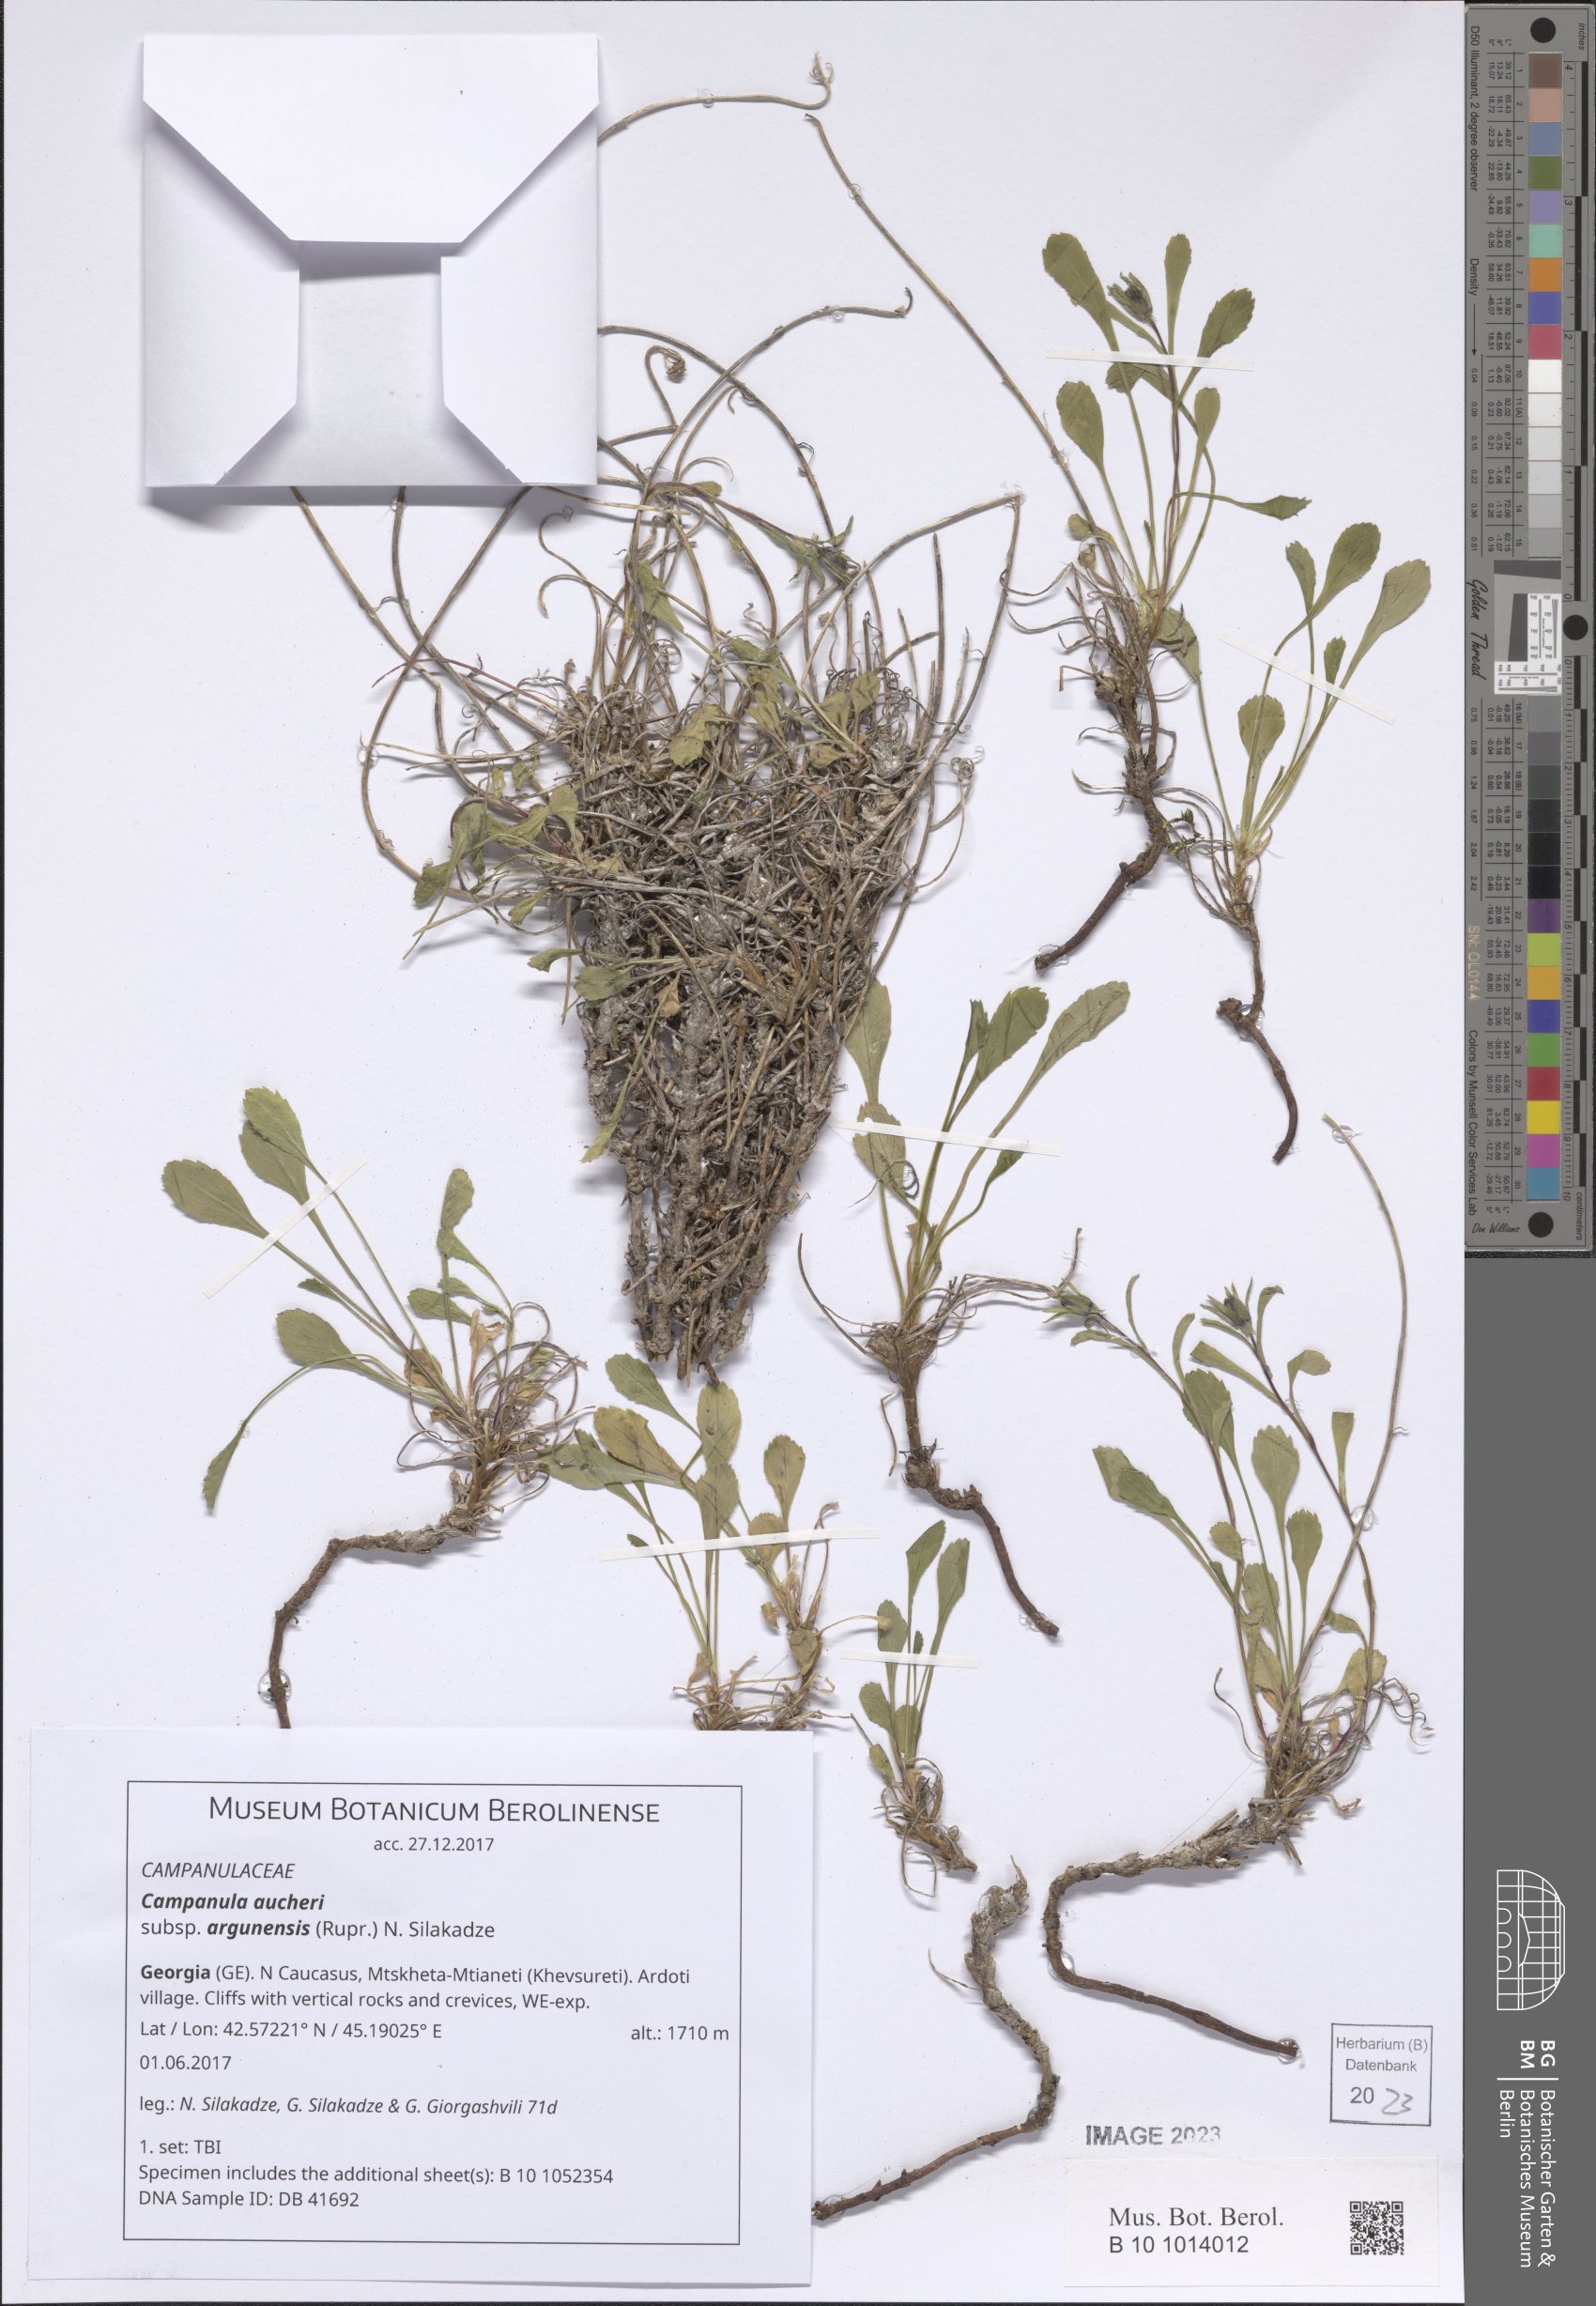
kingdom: Plantae
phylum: Tracheophyta
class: Magnoliopsida
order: Asterales
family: Campanulaceae
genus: Campanula
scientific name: Campanula saxifraga
